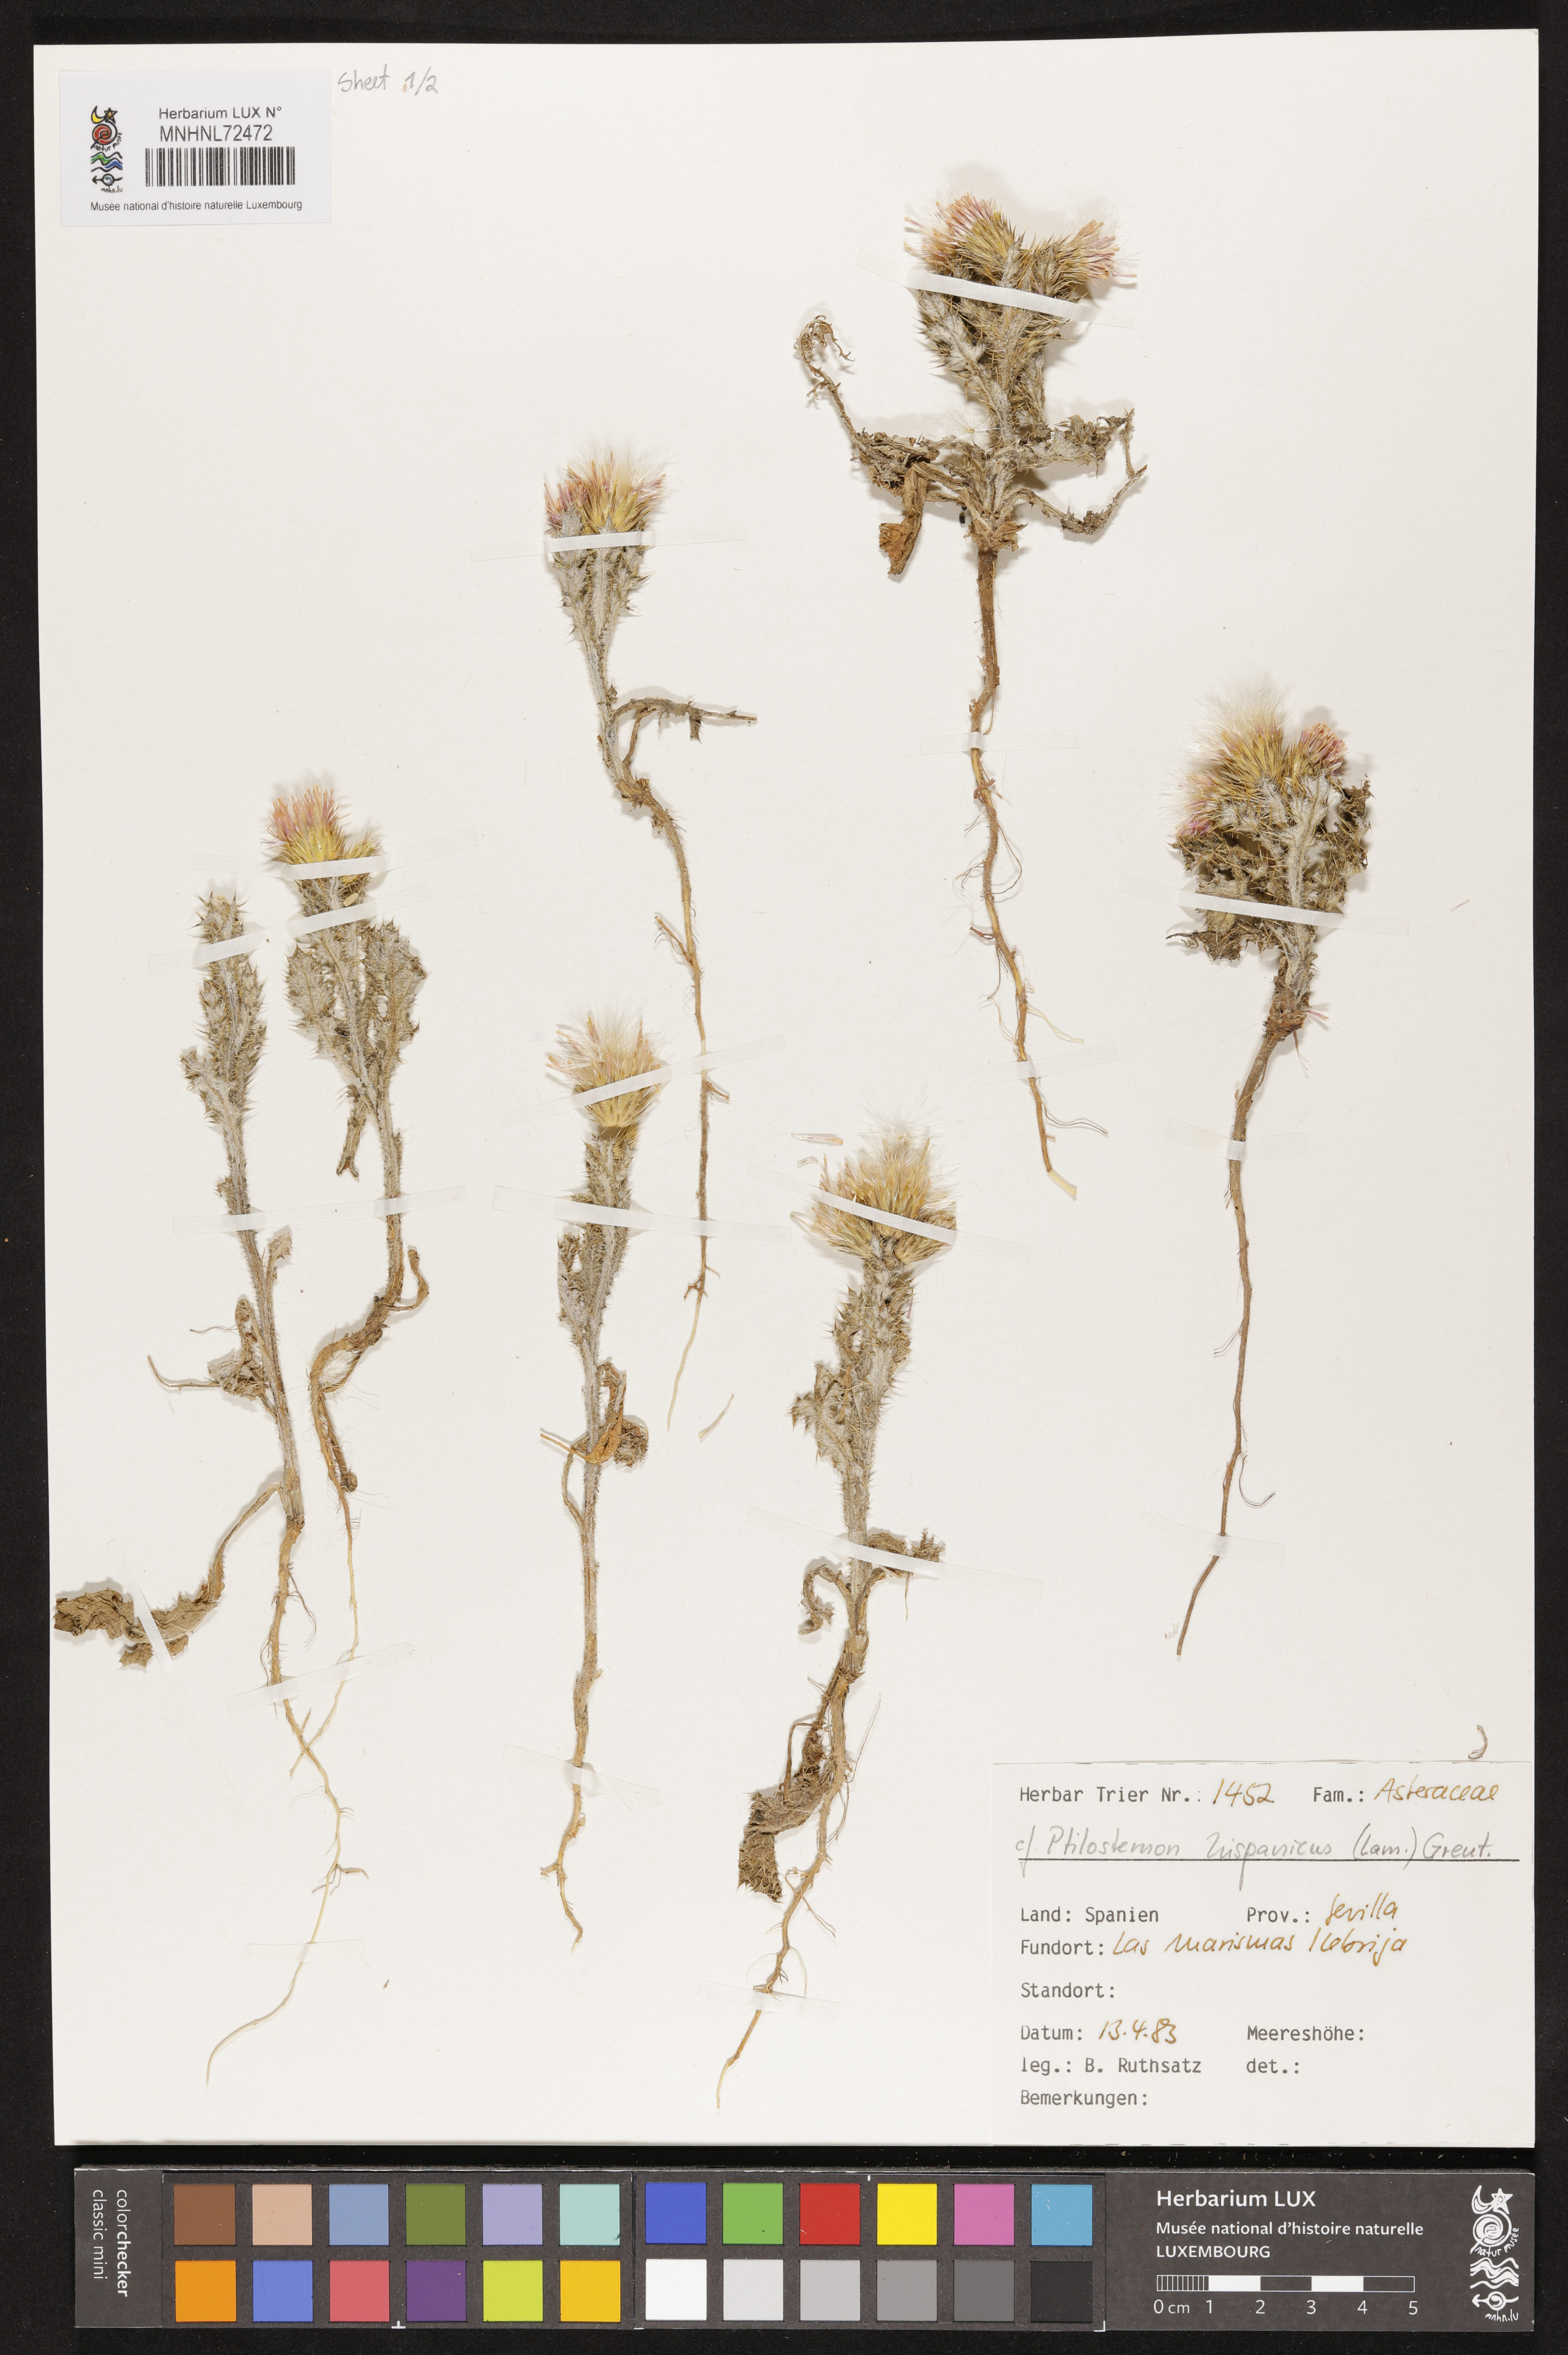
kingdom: Plantae
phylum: Tracheophyta
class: Magnoliopsida
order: Asterales
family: Asteraceae
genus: Ptilostemon
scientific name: Ptilostemon hispanicus
